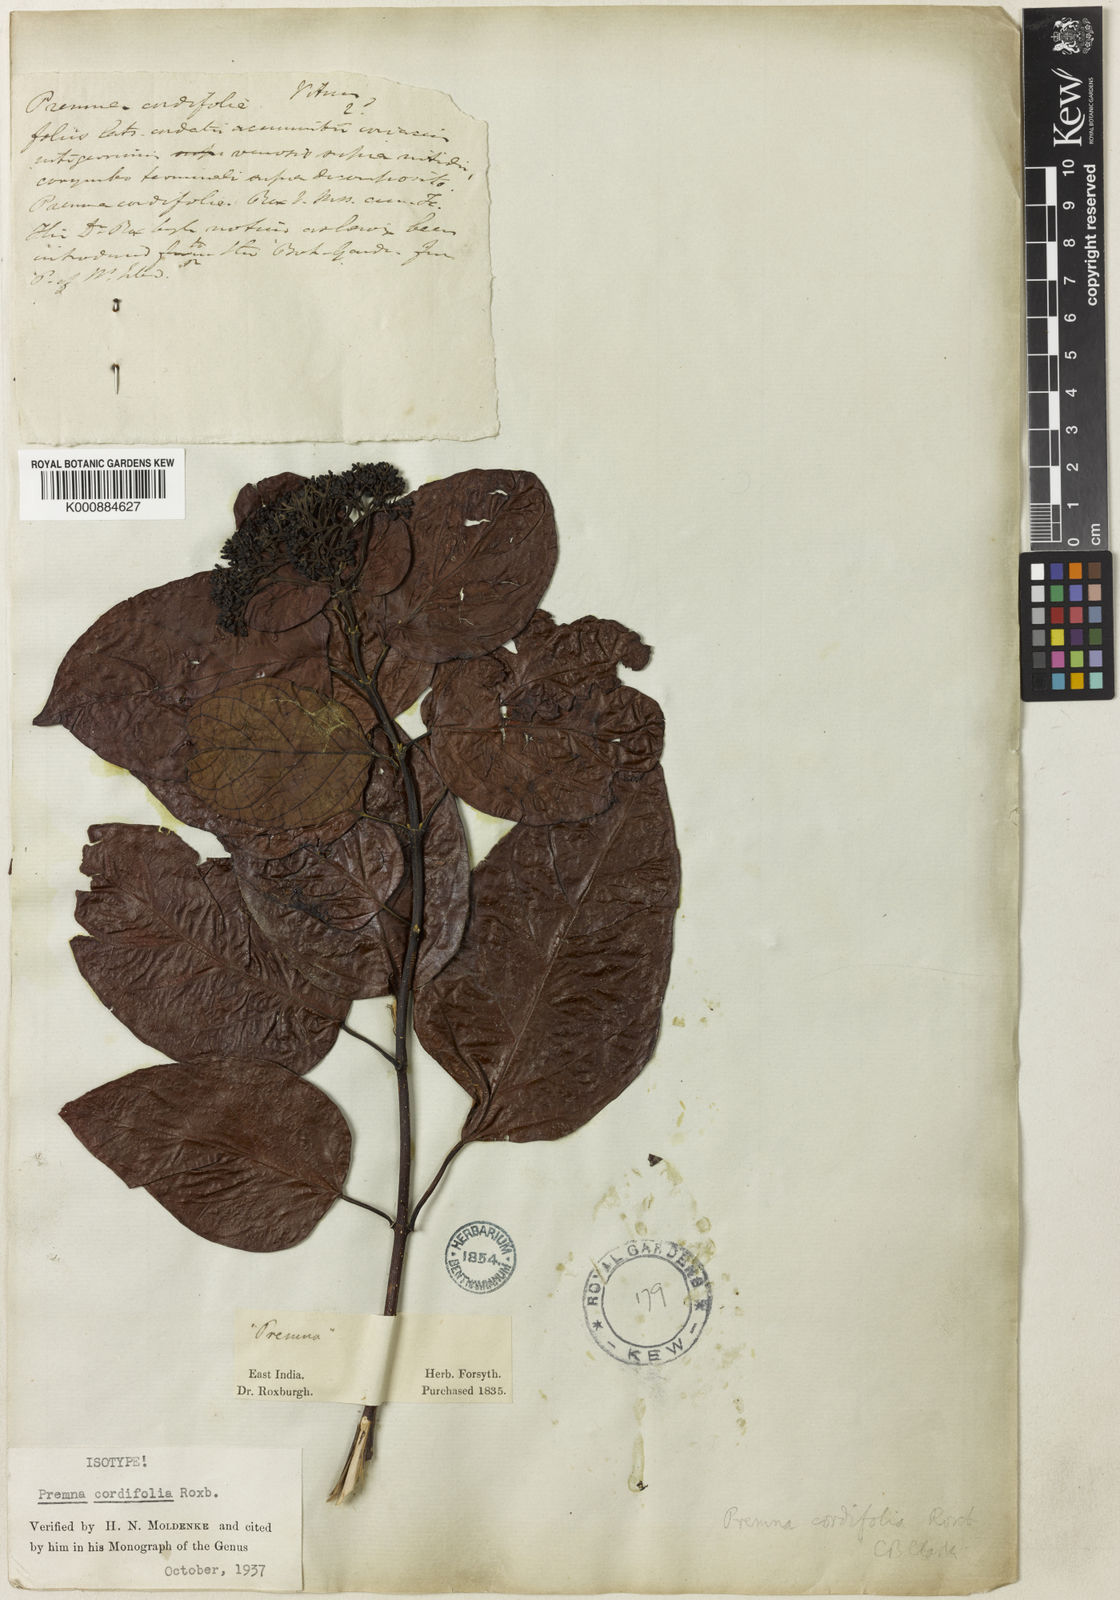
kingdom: Plantae
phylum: Tracheophyta
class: Magnoliopsida
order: Lamiales
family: Lamiaceae
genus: Premna
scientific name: Premna cordifolia
